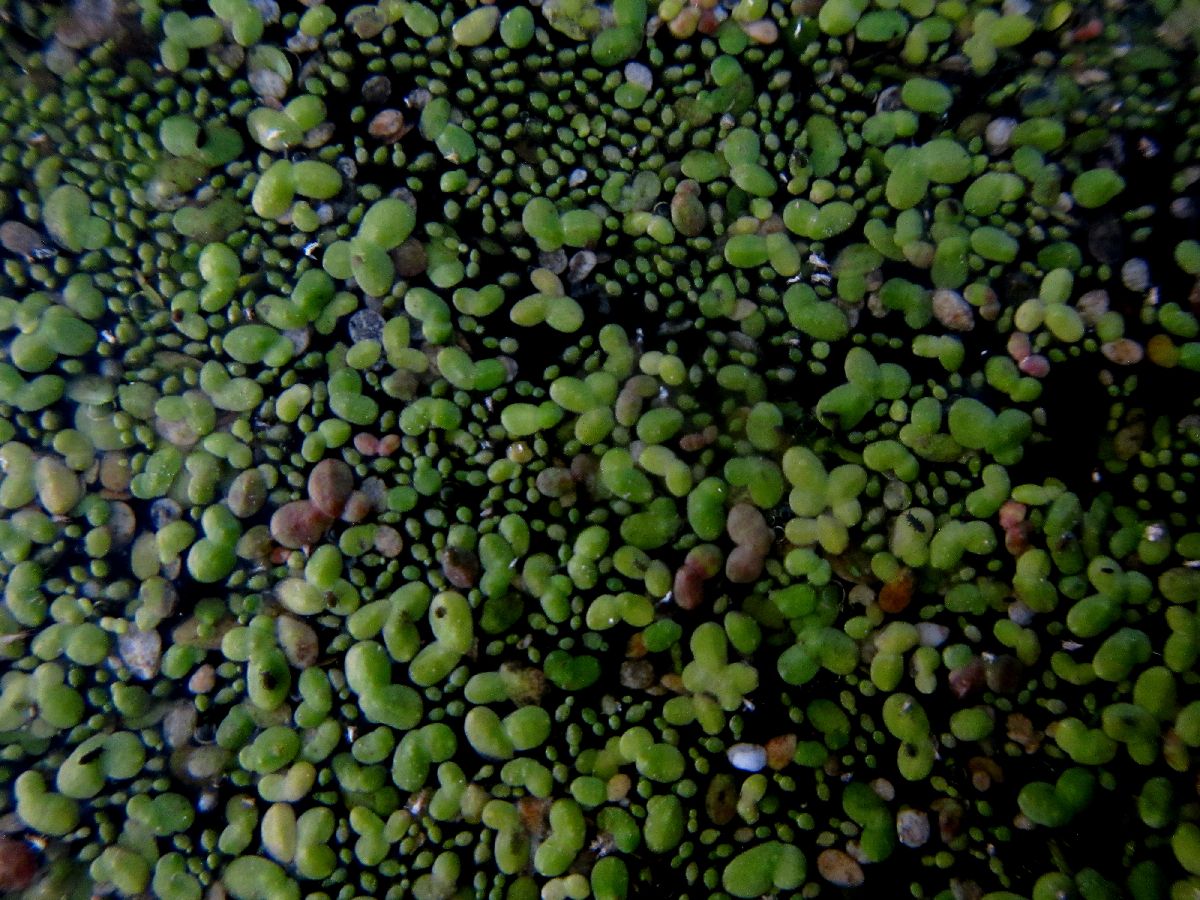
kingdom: Plantae
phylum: Tracheophyta
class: Liliopsida
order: Alismatales
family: Araceae
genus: Wolffia
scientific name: Wolffia arrhiza
